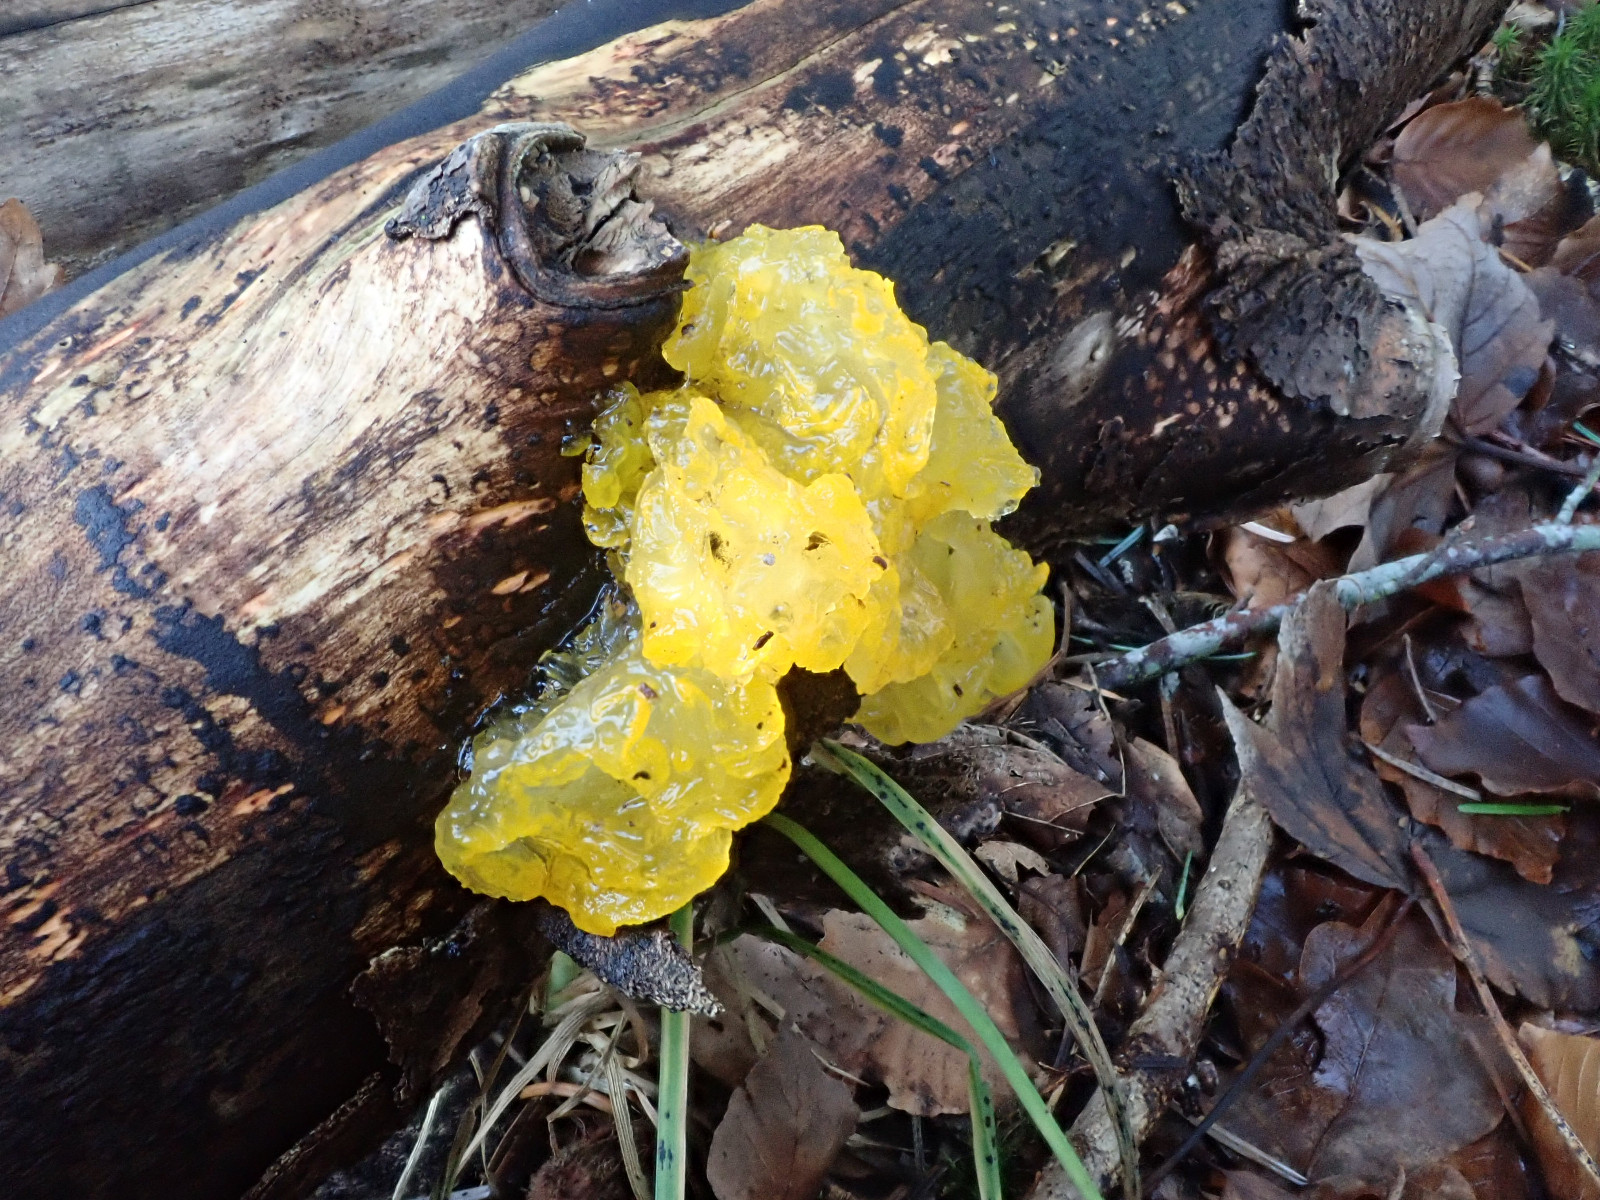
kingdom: Fungi
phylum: Basidiomycota
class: Tremellomycetes
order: Tremellales
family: Tremellaceae
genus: Tremella
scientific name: Tremella mesenterica
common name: gul bævresvamp
